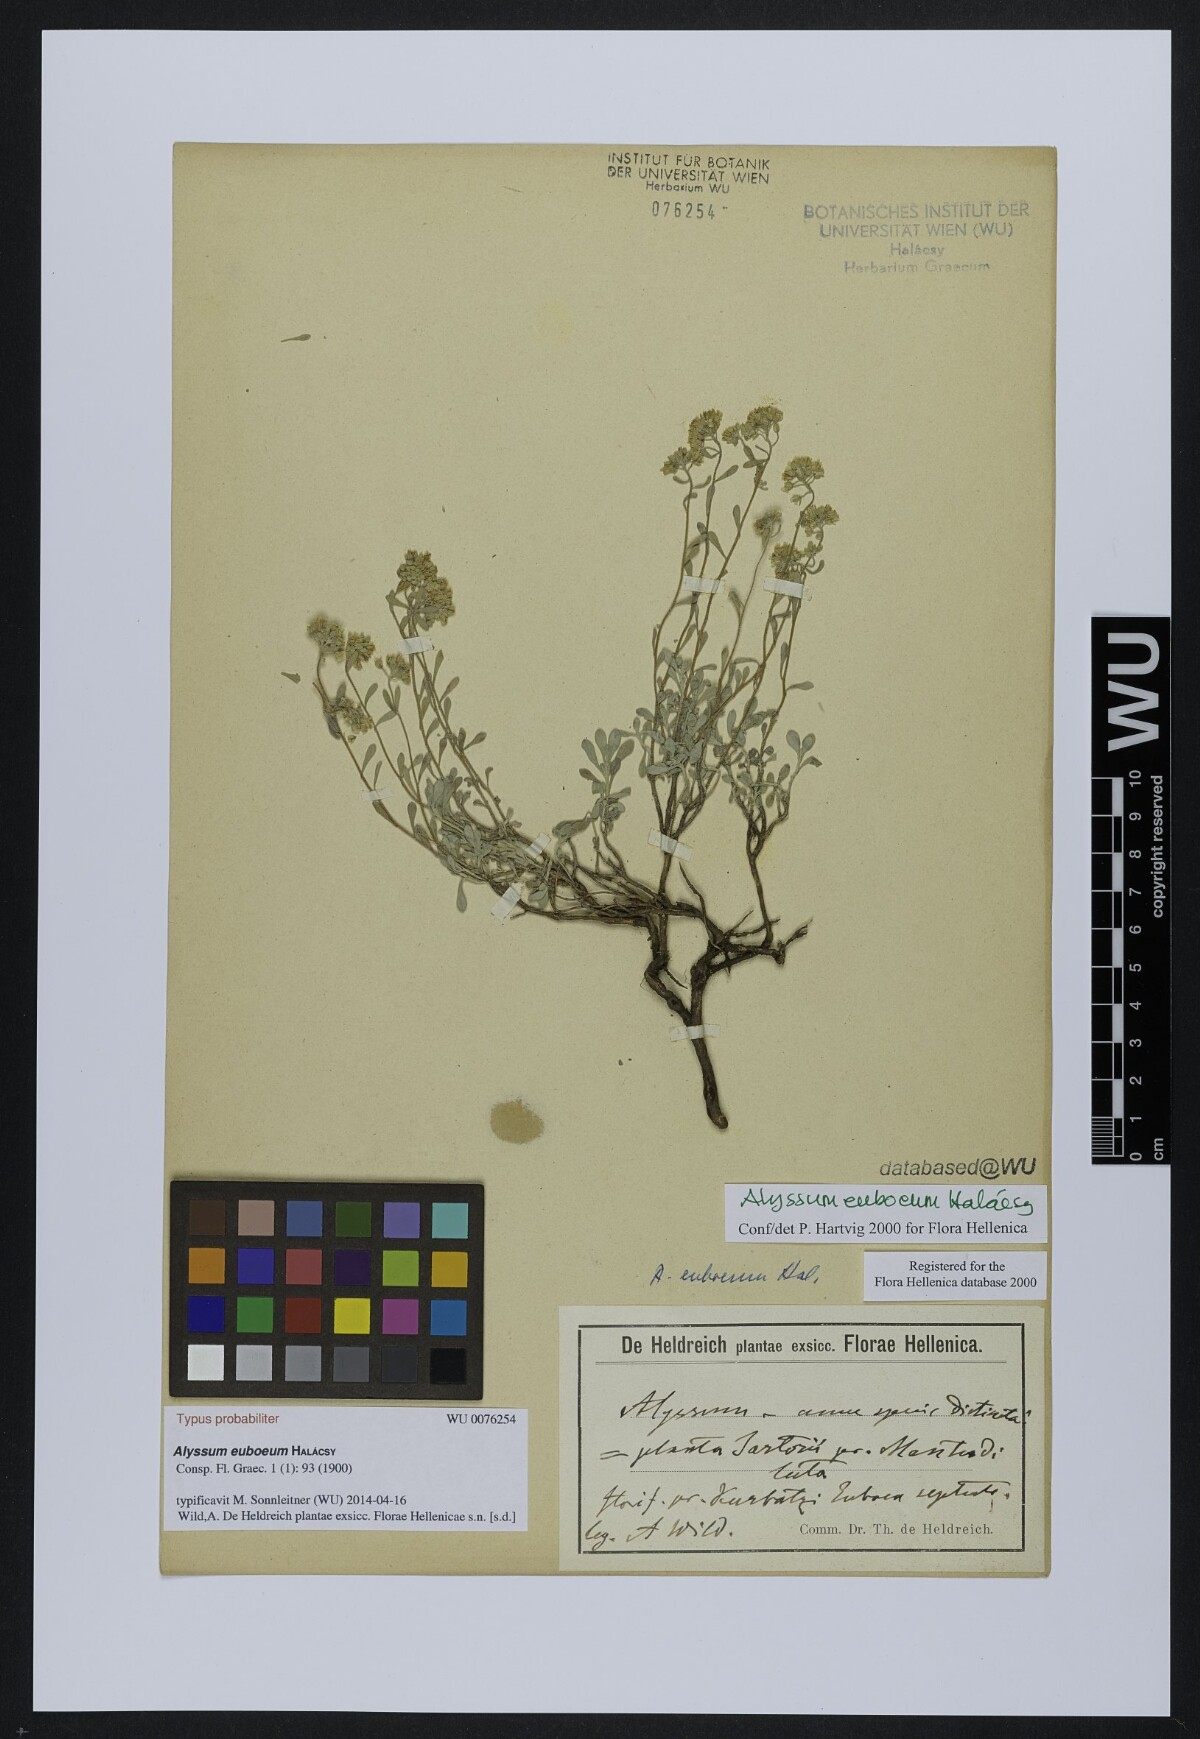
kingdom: Plantae
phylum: Tracheophyta
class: Magnoliopsida
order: Brassicales
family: Brassicaceae
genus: Odontarrhena
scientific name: Odontarrhena euboea
